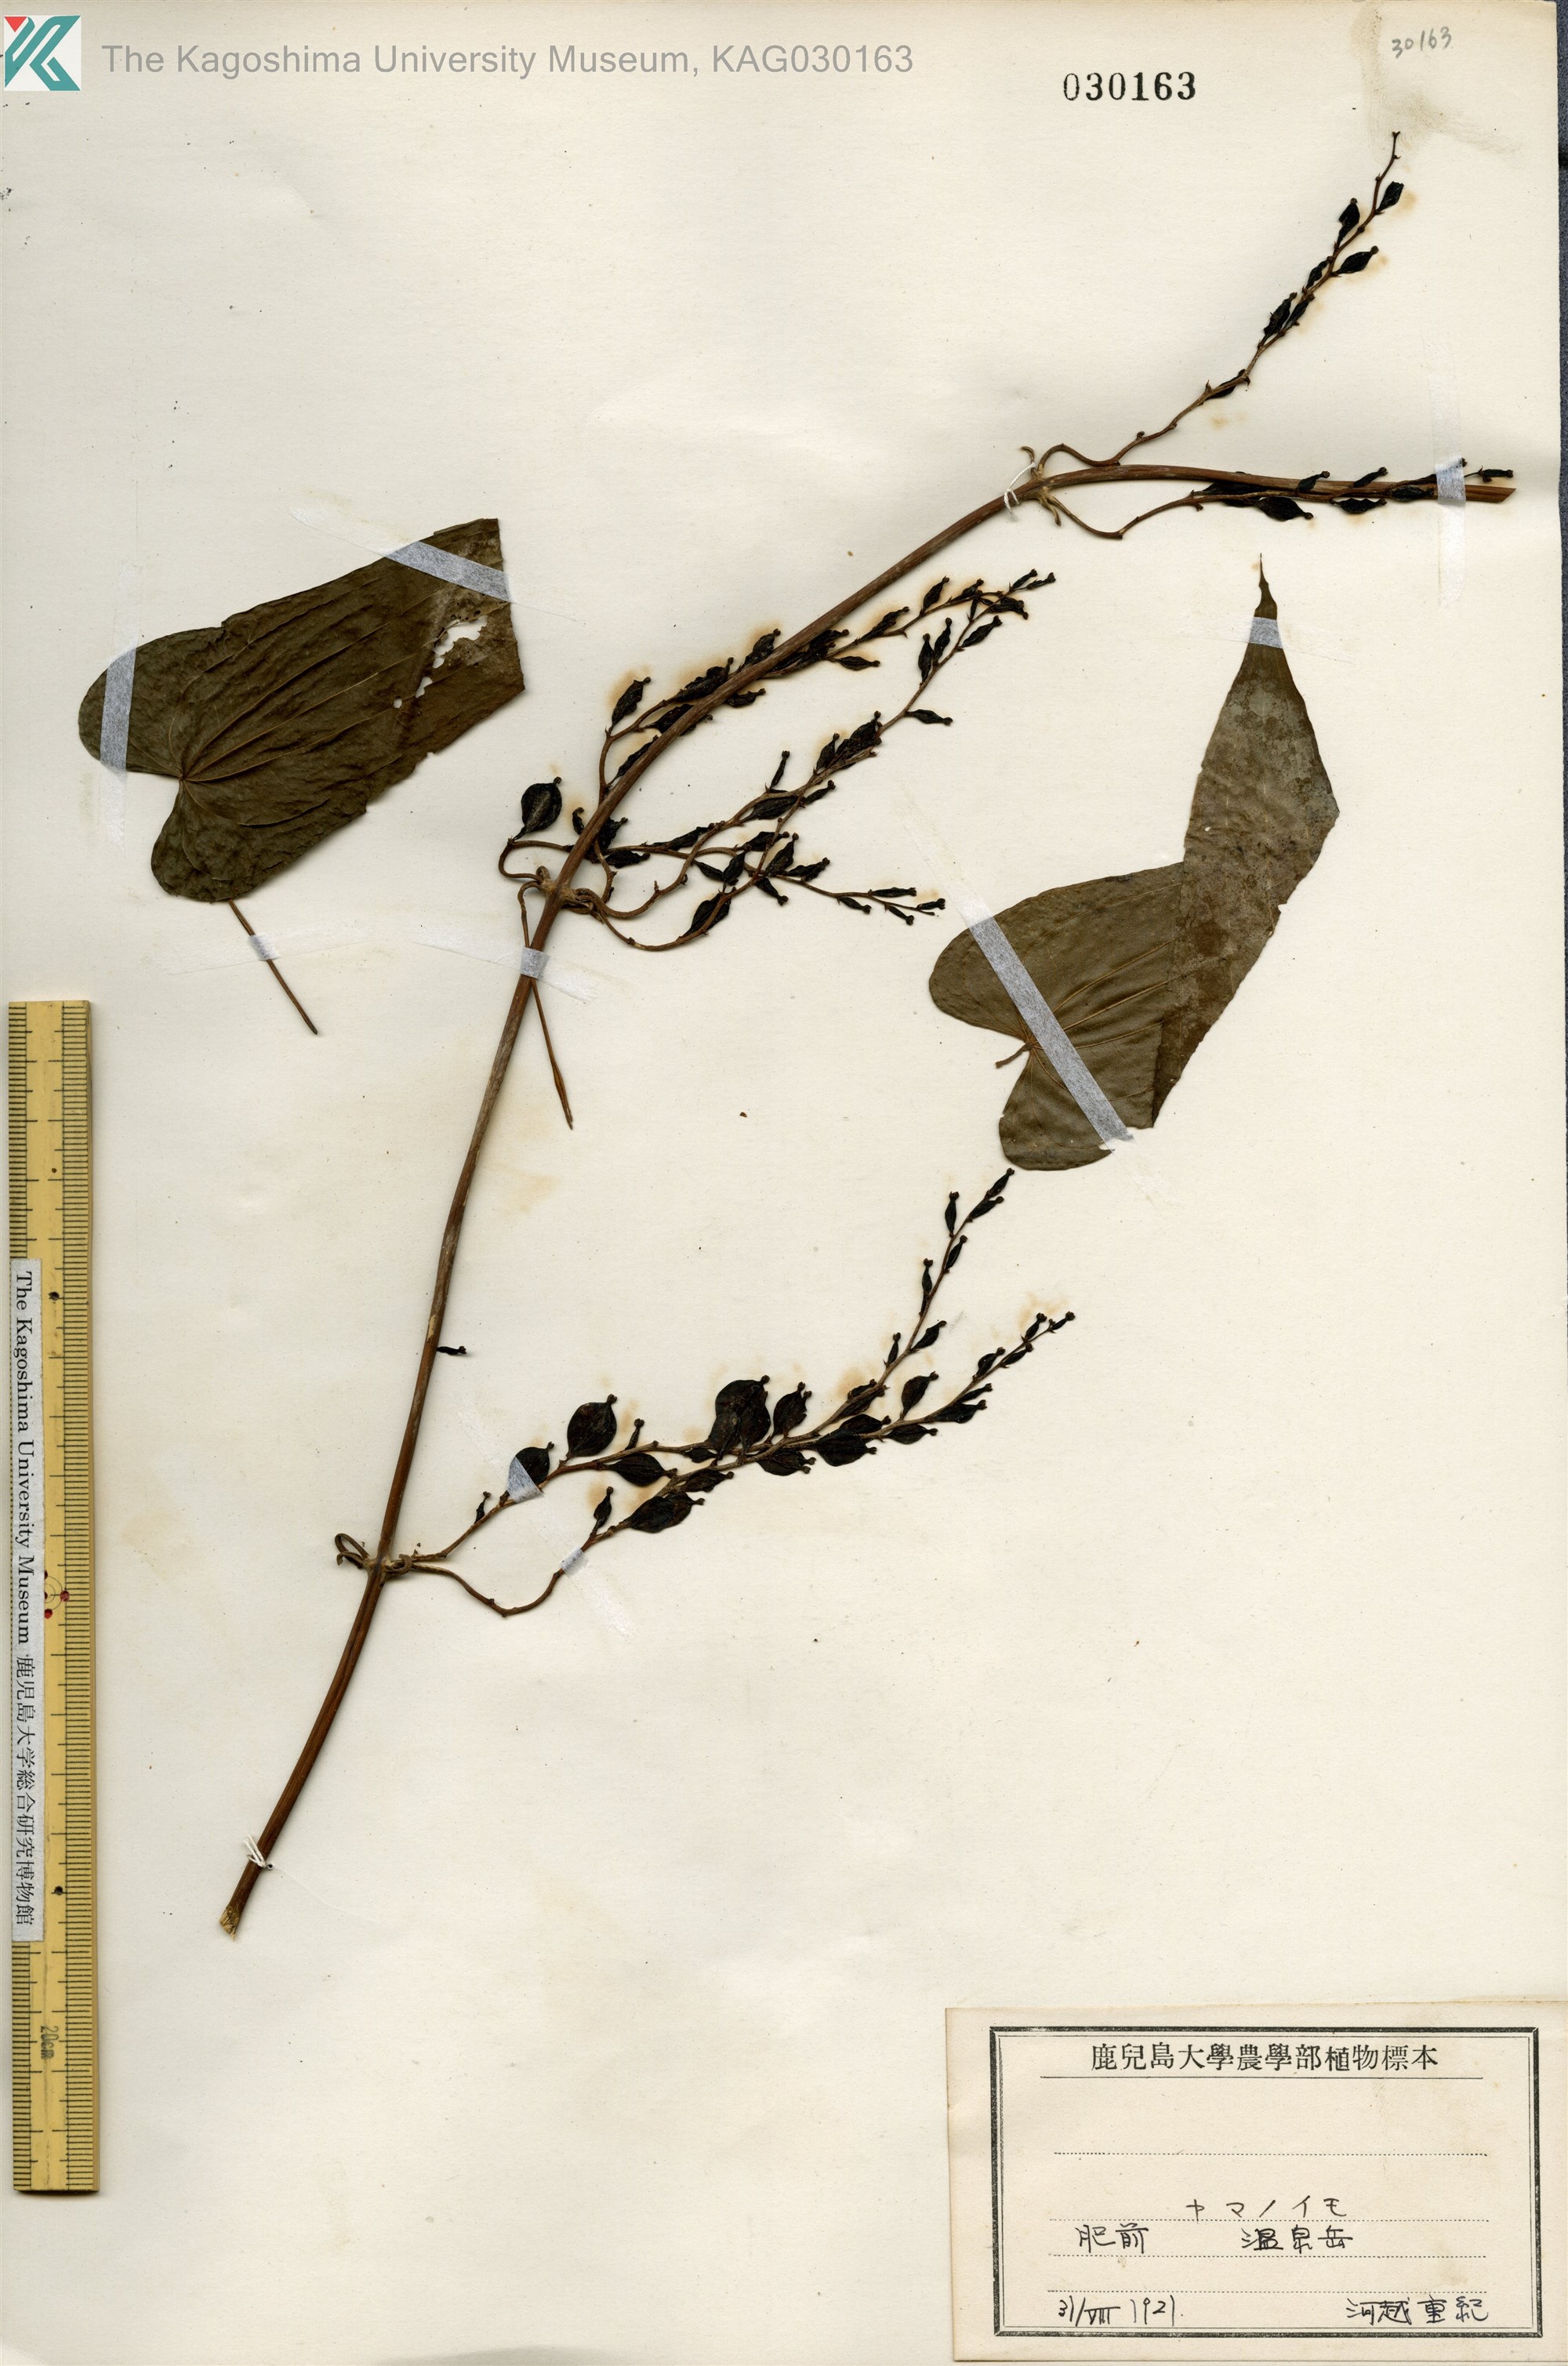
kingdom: Plantae
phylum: Tracheophyta
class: Liliopsida
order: Dioscoreales
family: Dioscoreaceae
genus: Dioscorea
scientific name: Dioscorea japonica
